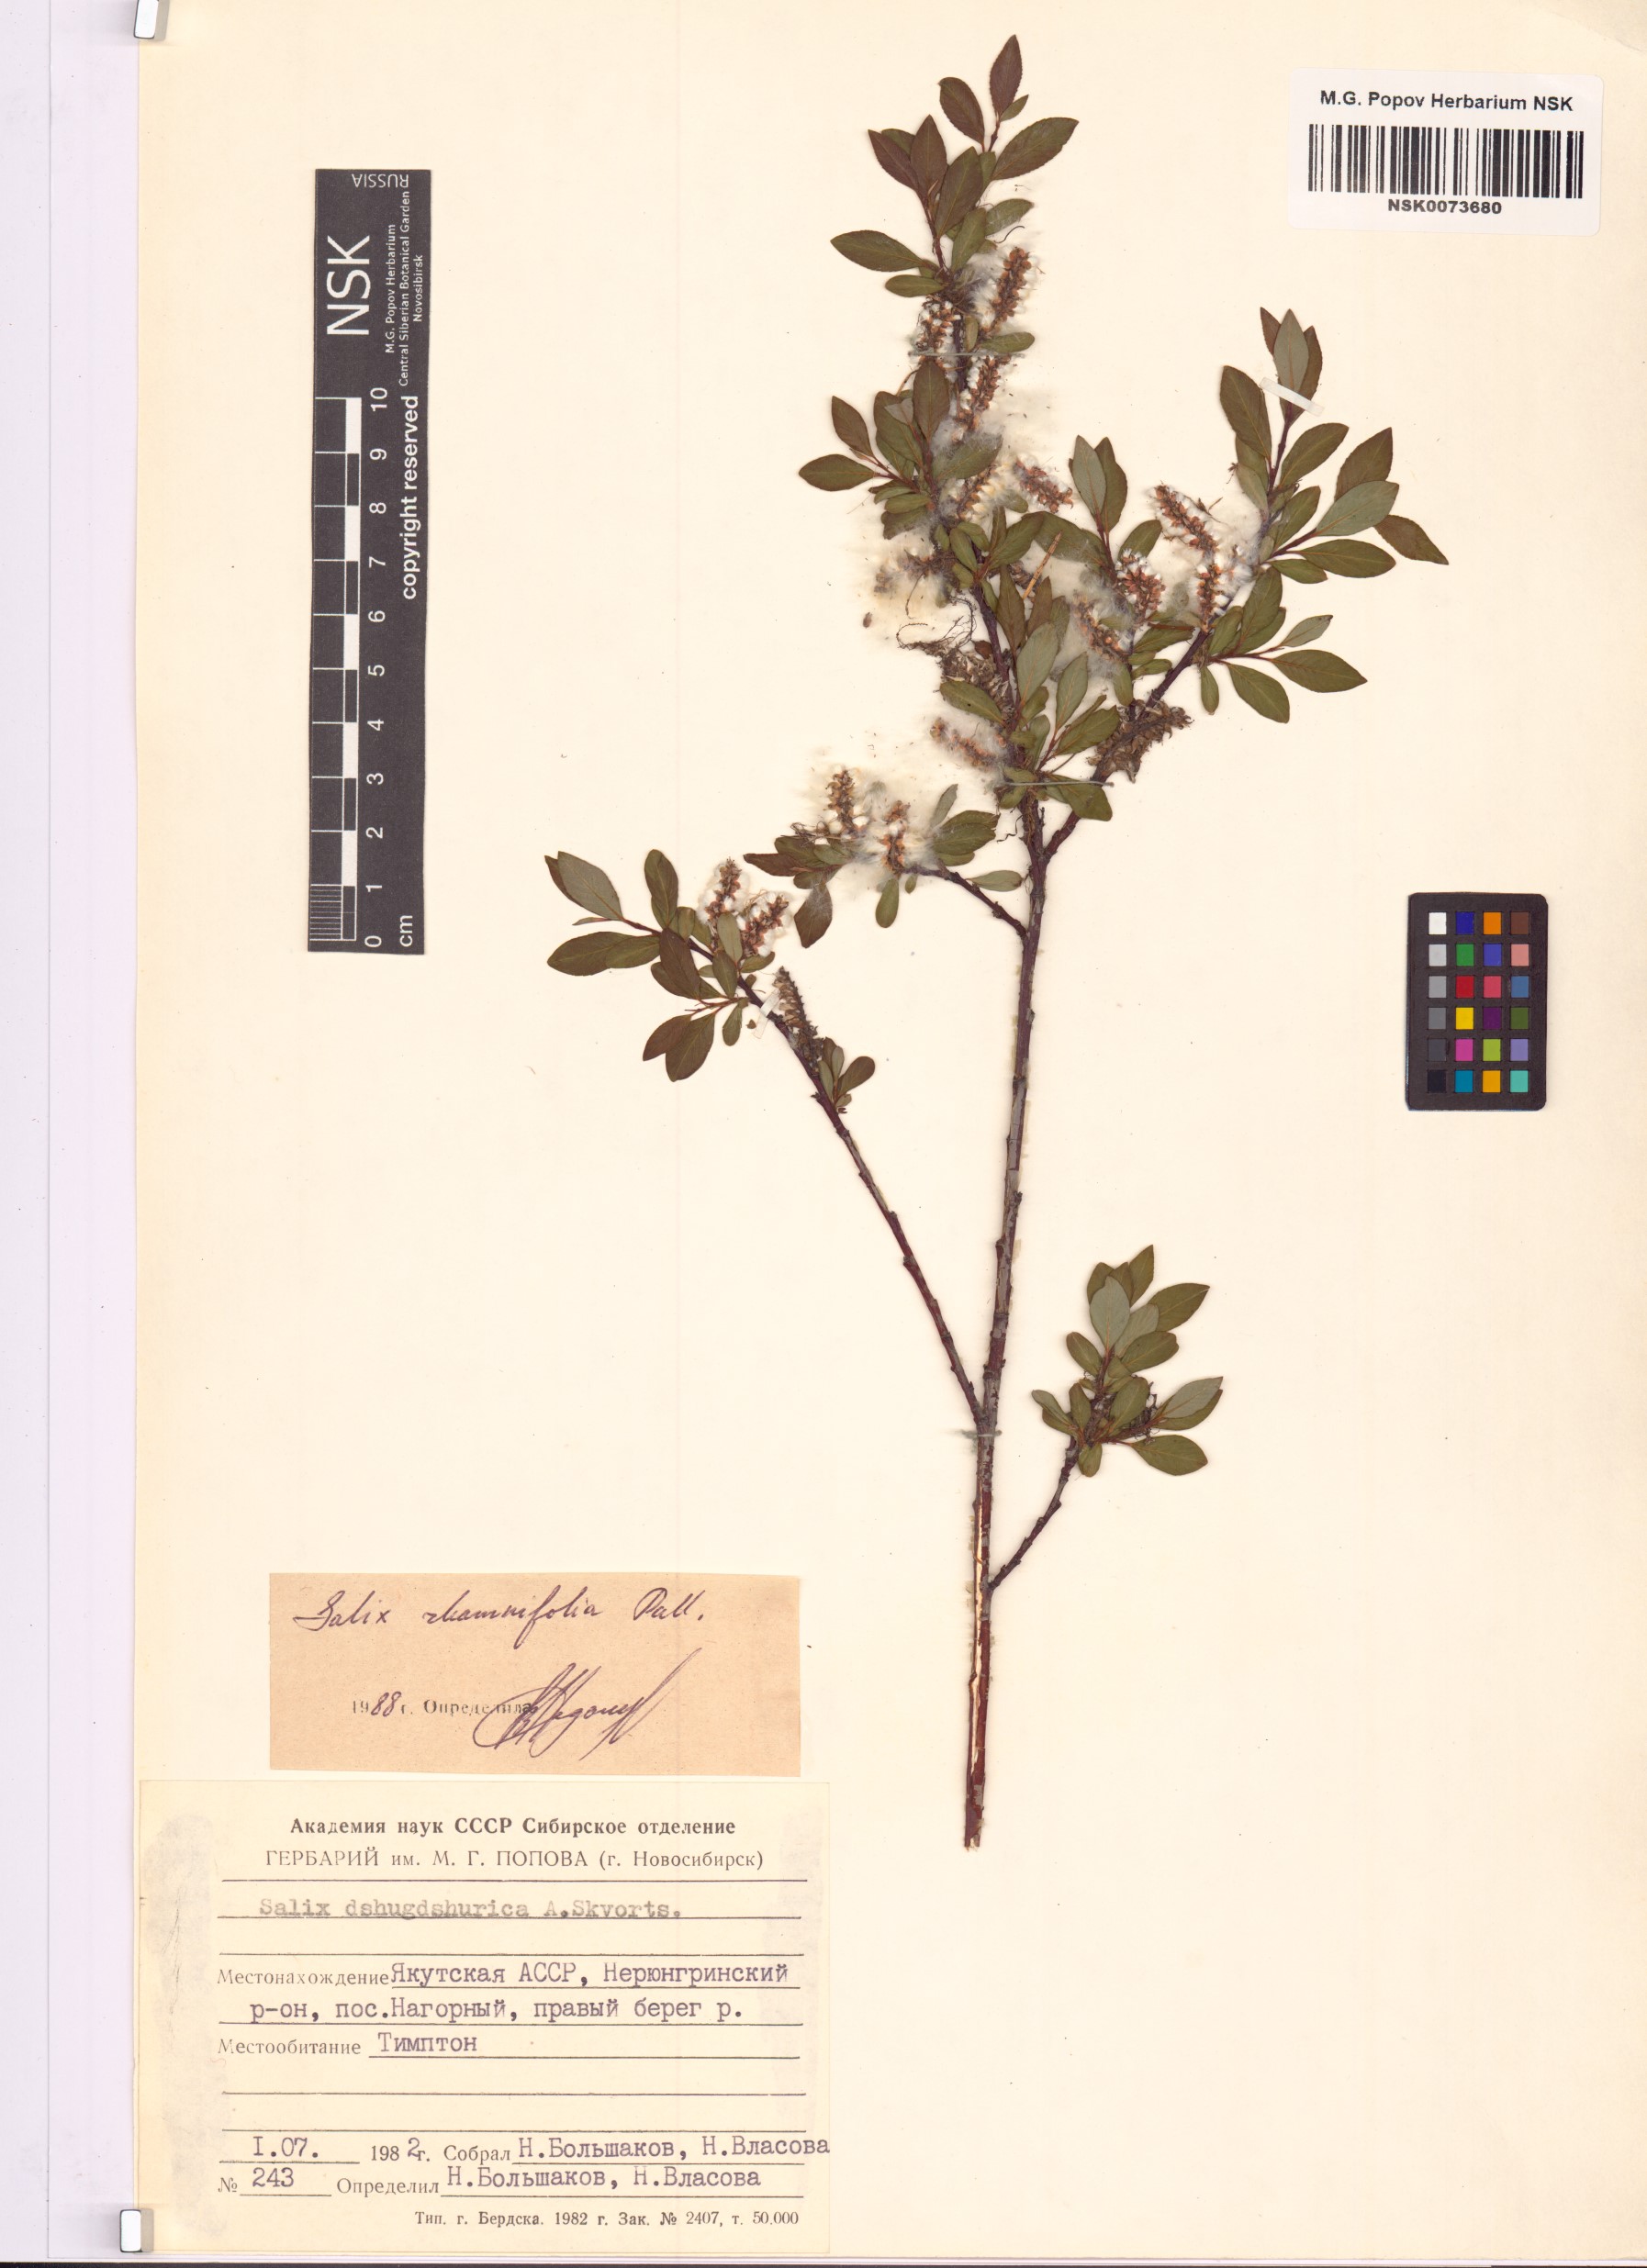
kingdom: Plantae
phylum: Tracheophyta
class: Magnoliopsida
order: Malpighiales
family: Salicaceae
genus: Salix
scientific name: Salix rhamnifolia
